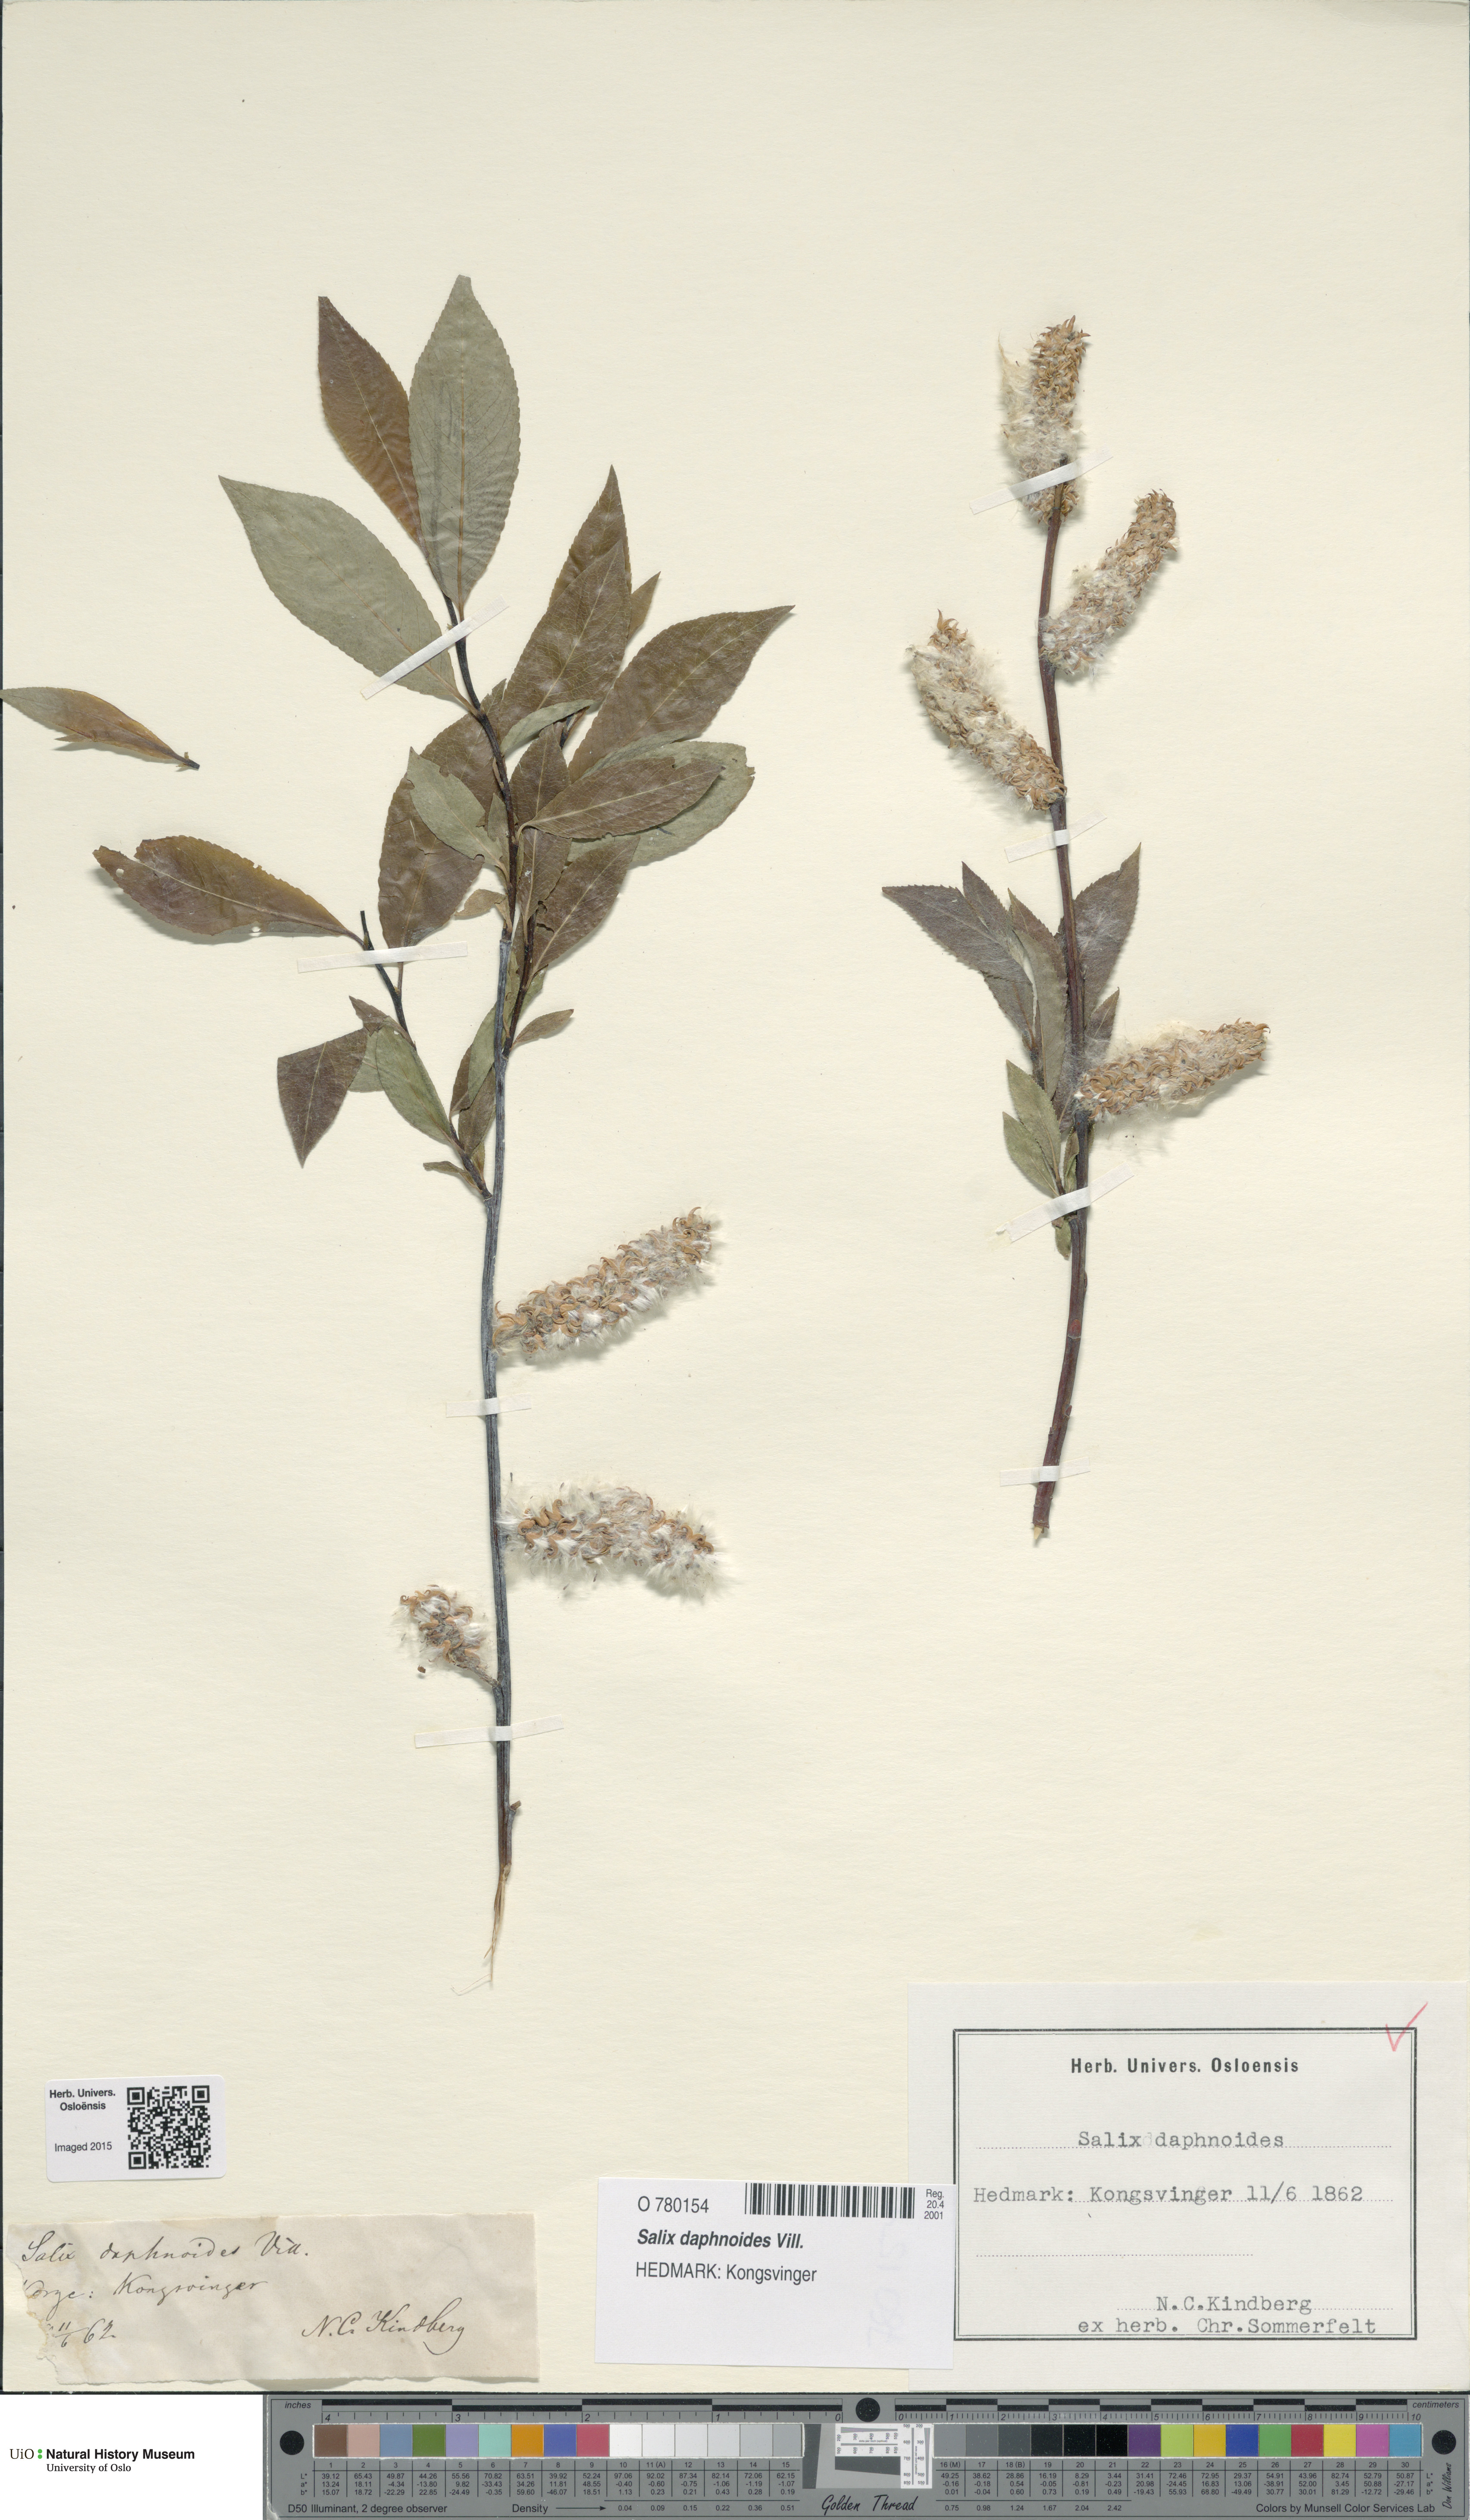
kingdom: Plantae
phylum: Tracheophyta
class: Magnoliopsida
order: Malpighiales
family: Salicaceae
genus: Salix
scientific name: Salix daphnoides
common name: European violet-willow
